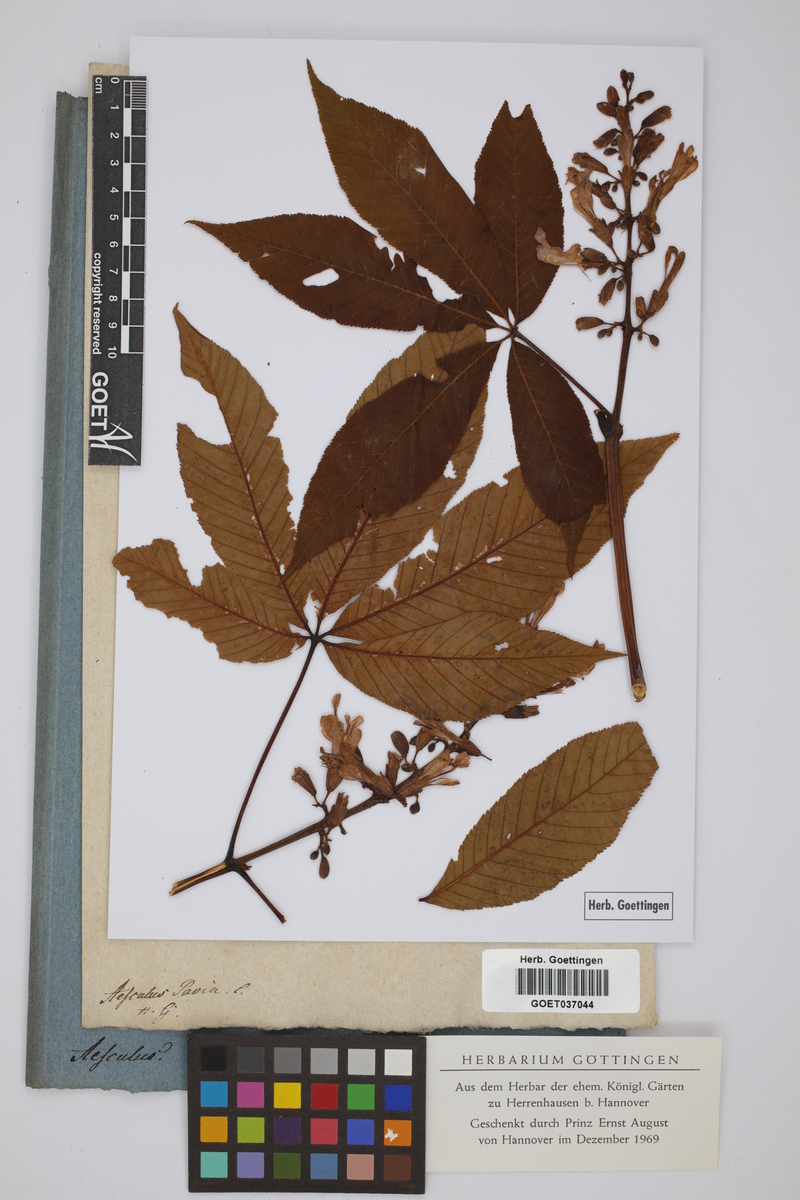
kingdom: Plantae
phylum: Tracheophyta
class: Magnoliopsida
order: Sapindales
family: Sapindaceae
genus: Aesculus
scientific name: Aesculus pavia
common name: Red buckeye
